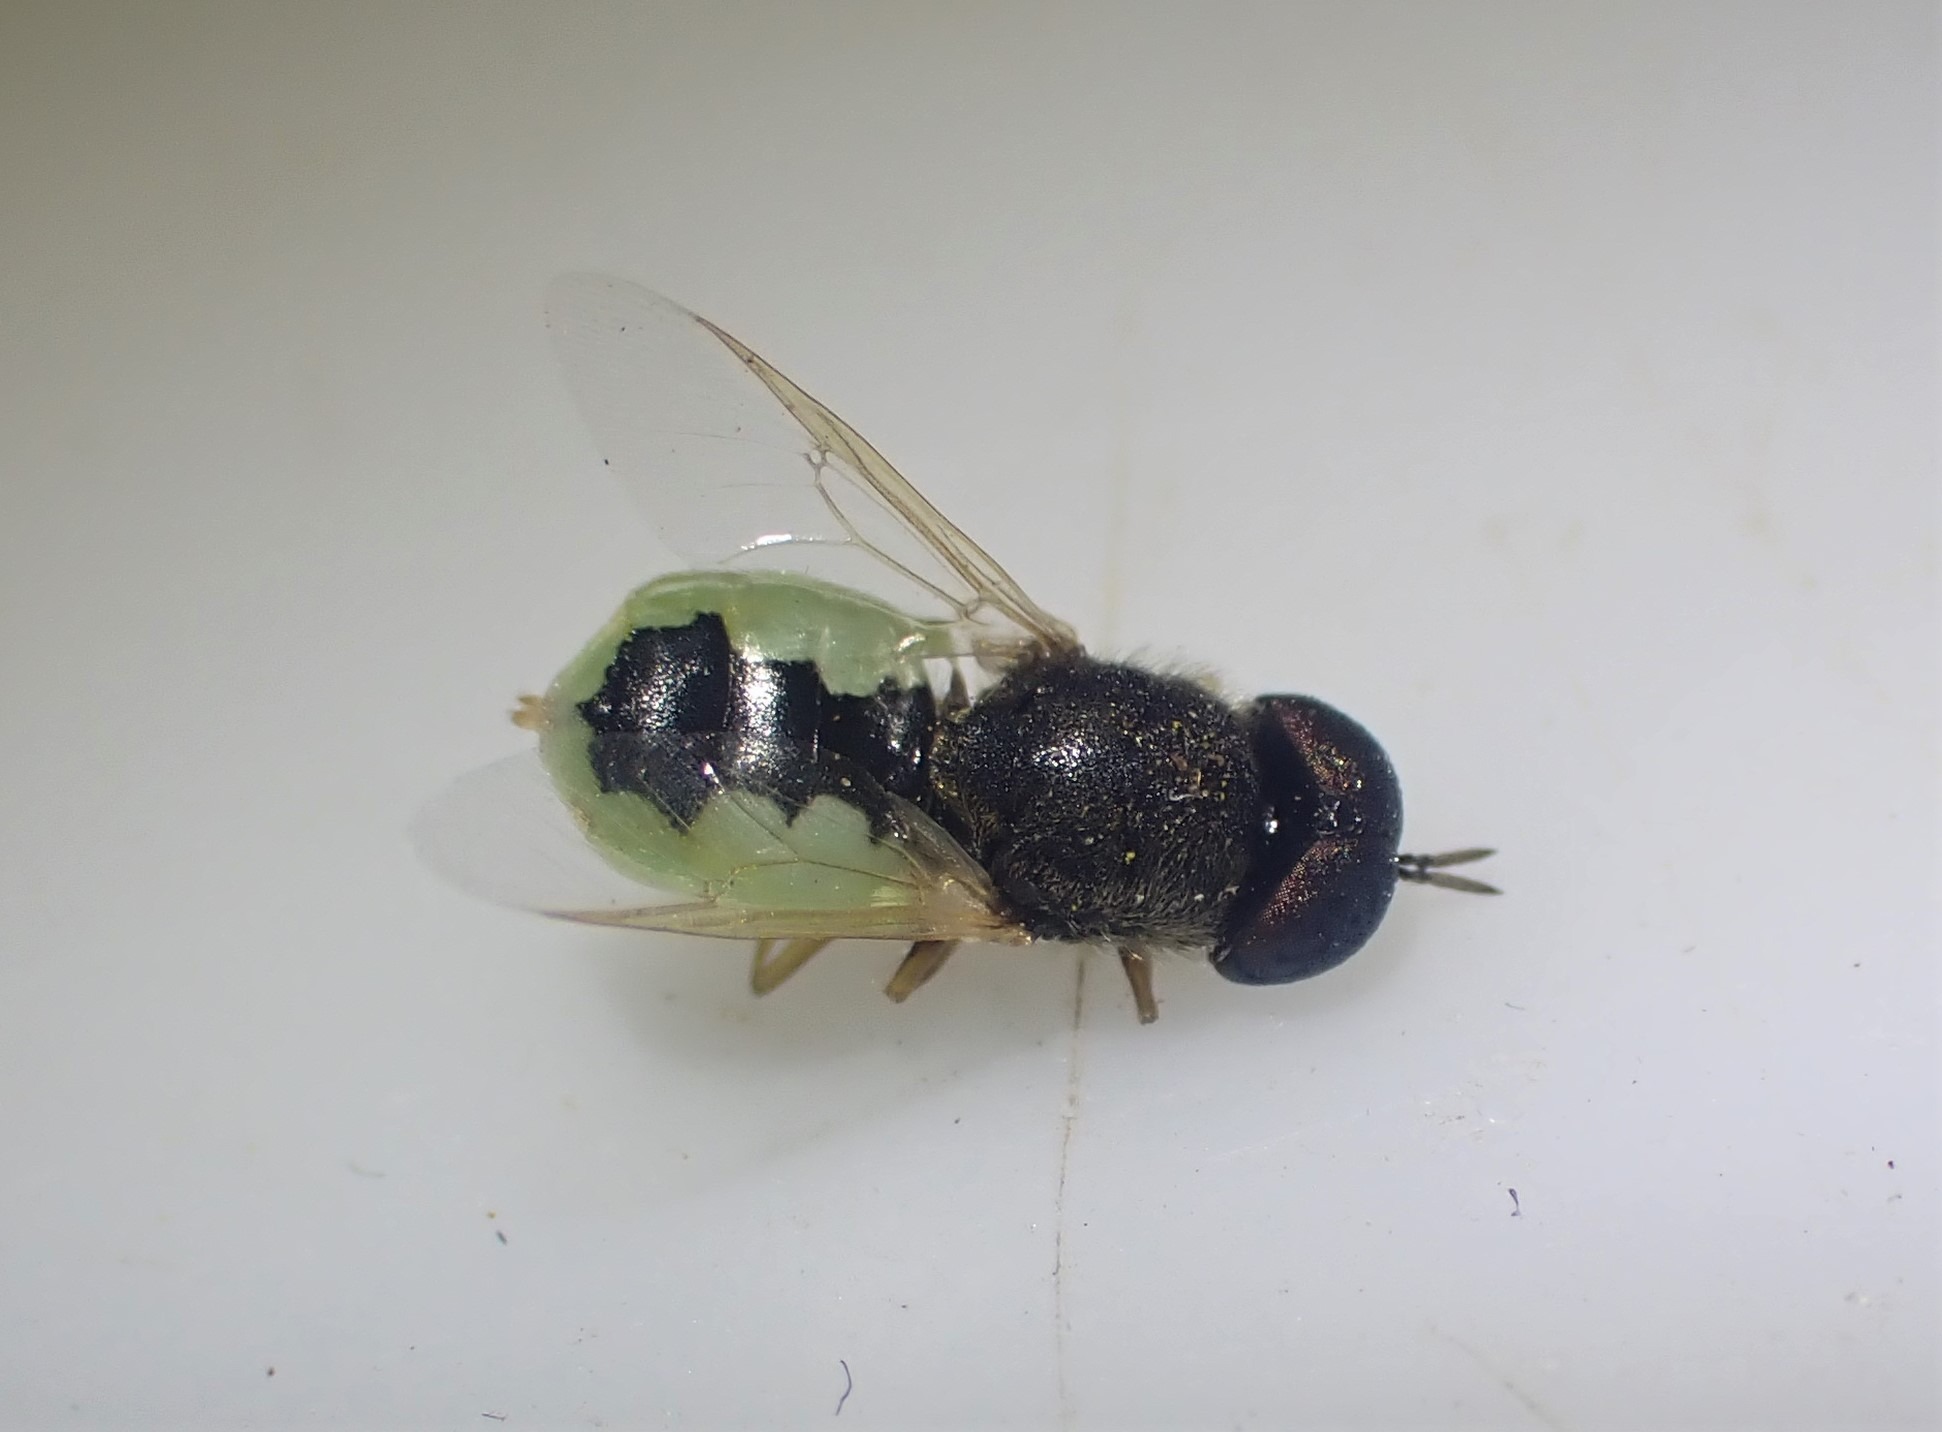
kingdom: Animalia
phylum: Arthropoda
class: Insecta
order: Diptera
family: Stratiomyidae
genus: Oplodontha
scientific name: Oplodontha viridula
